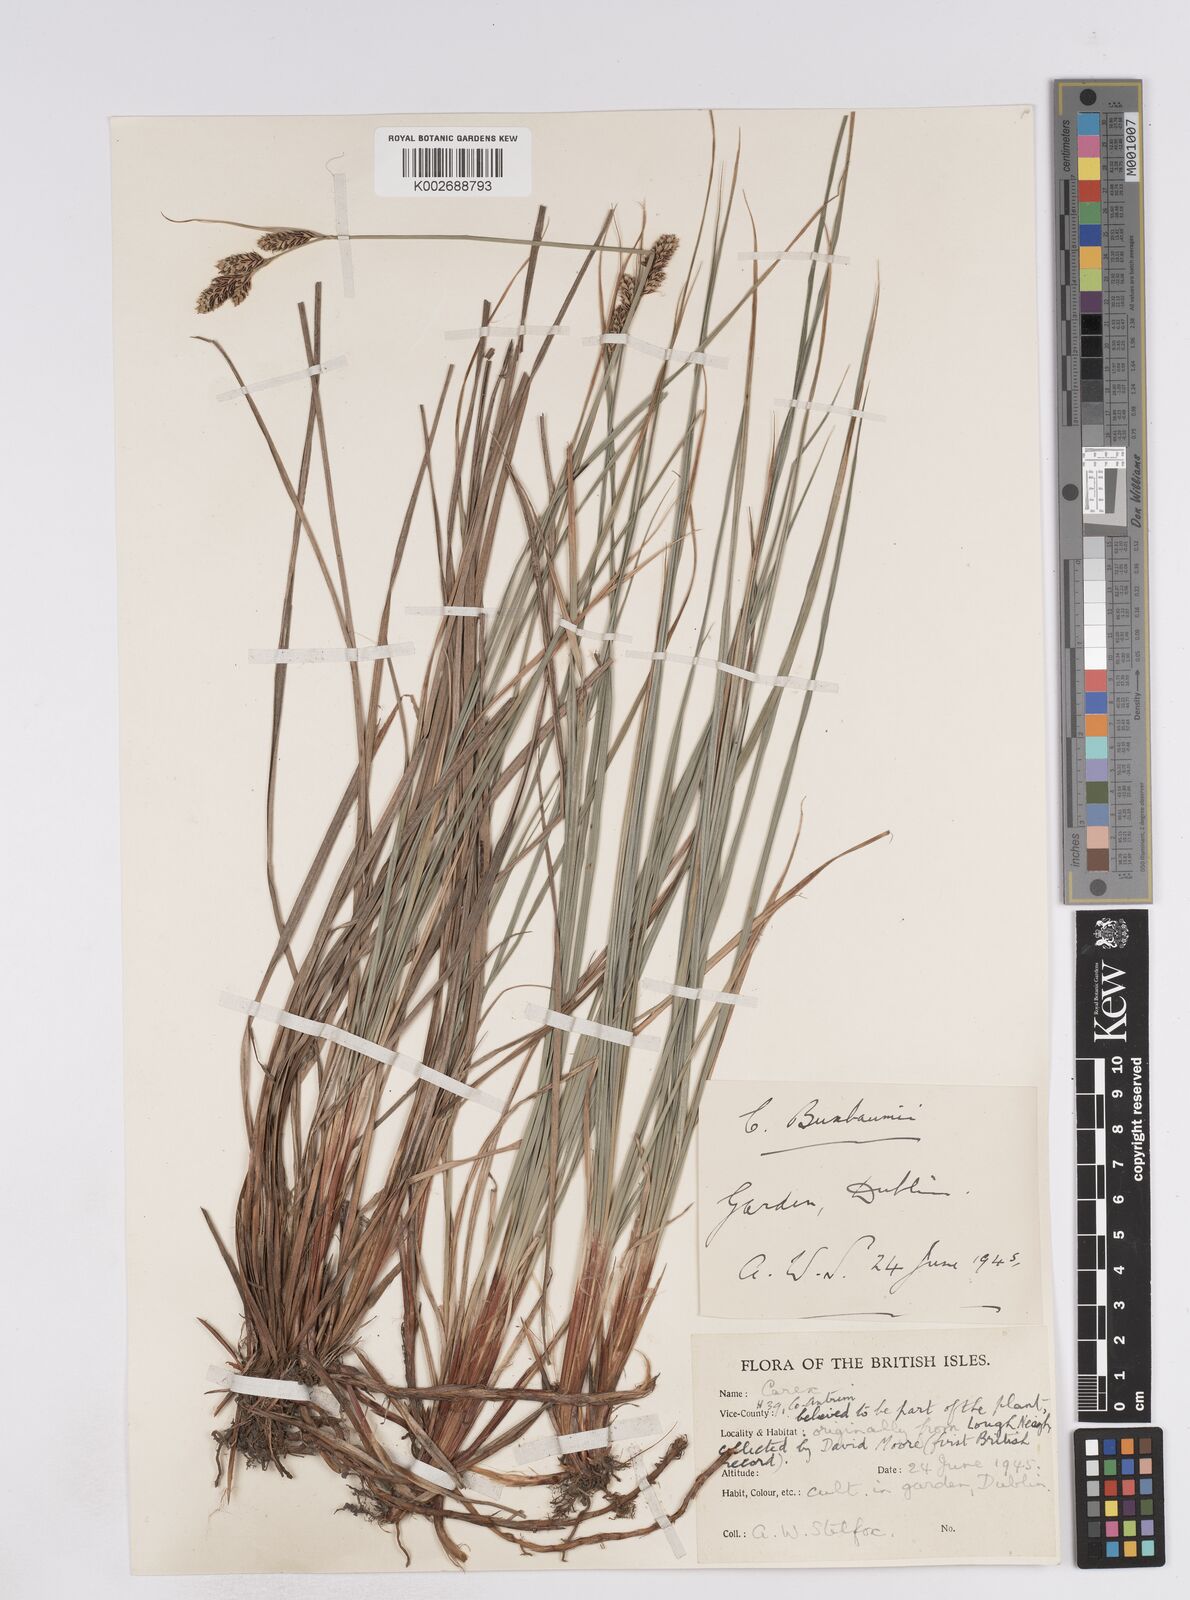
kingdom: Plantae
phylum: Tracheophyta
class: Liliopsida
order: Poales
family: Cyperaceae
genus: Carex
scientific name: Carex buxbaumii
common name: Club sedge
